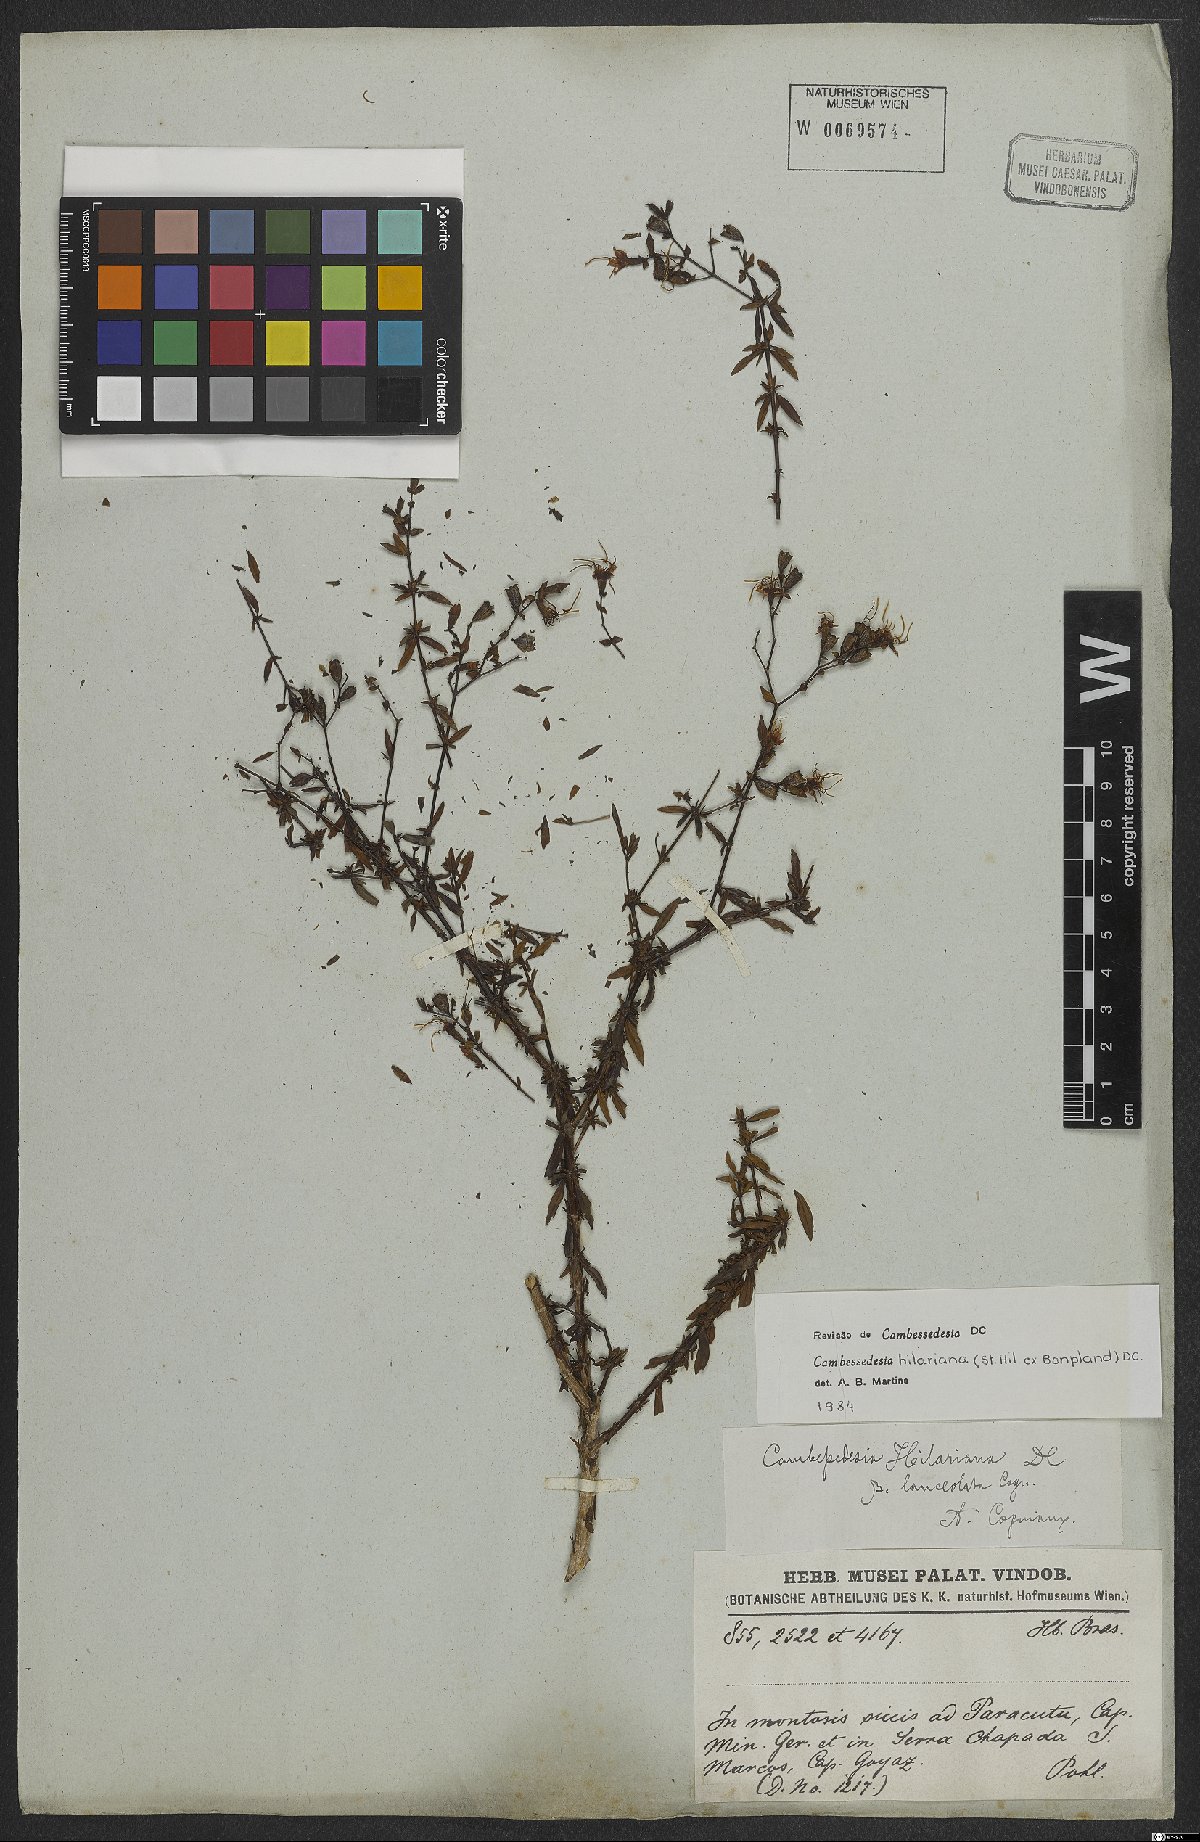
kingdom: Plantae
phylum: Tracheophyta
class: Magnoliopsida
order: Myrtales
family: Melastomataceae
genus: Cambessedesia
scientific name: Cambessedesia hilariana
